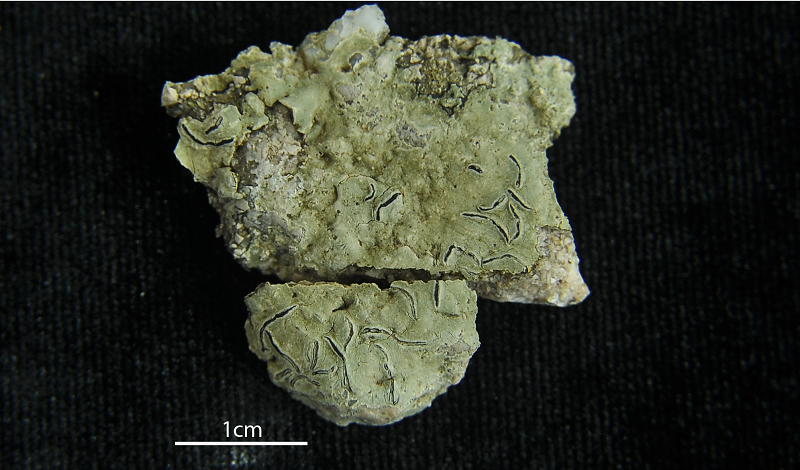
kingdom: Fungi
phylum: Ascomycota
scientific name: Ascomycota
